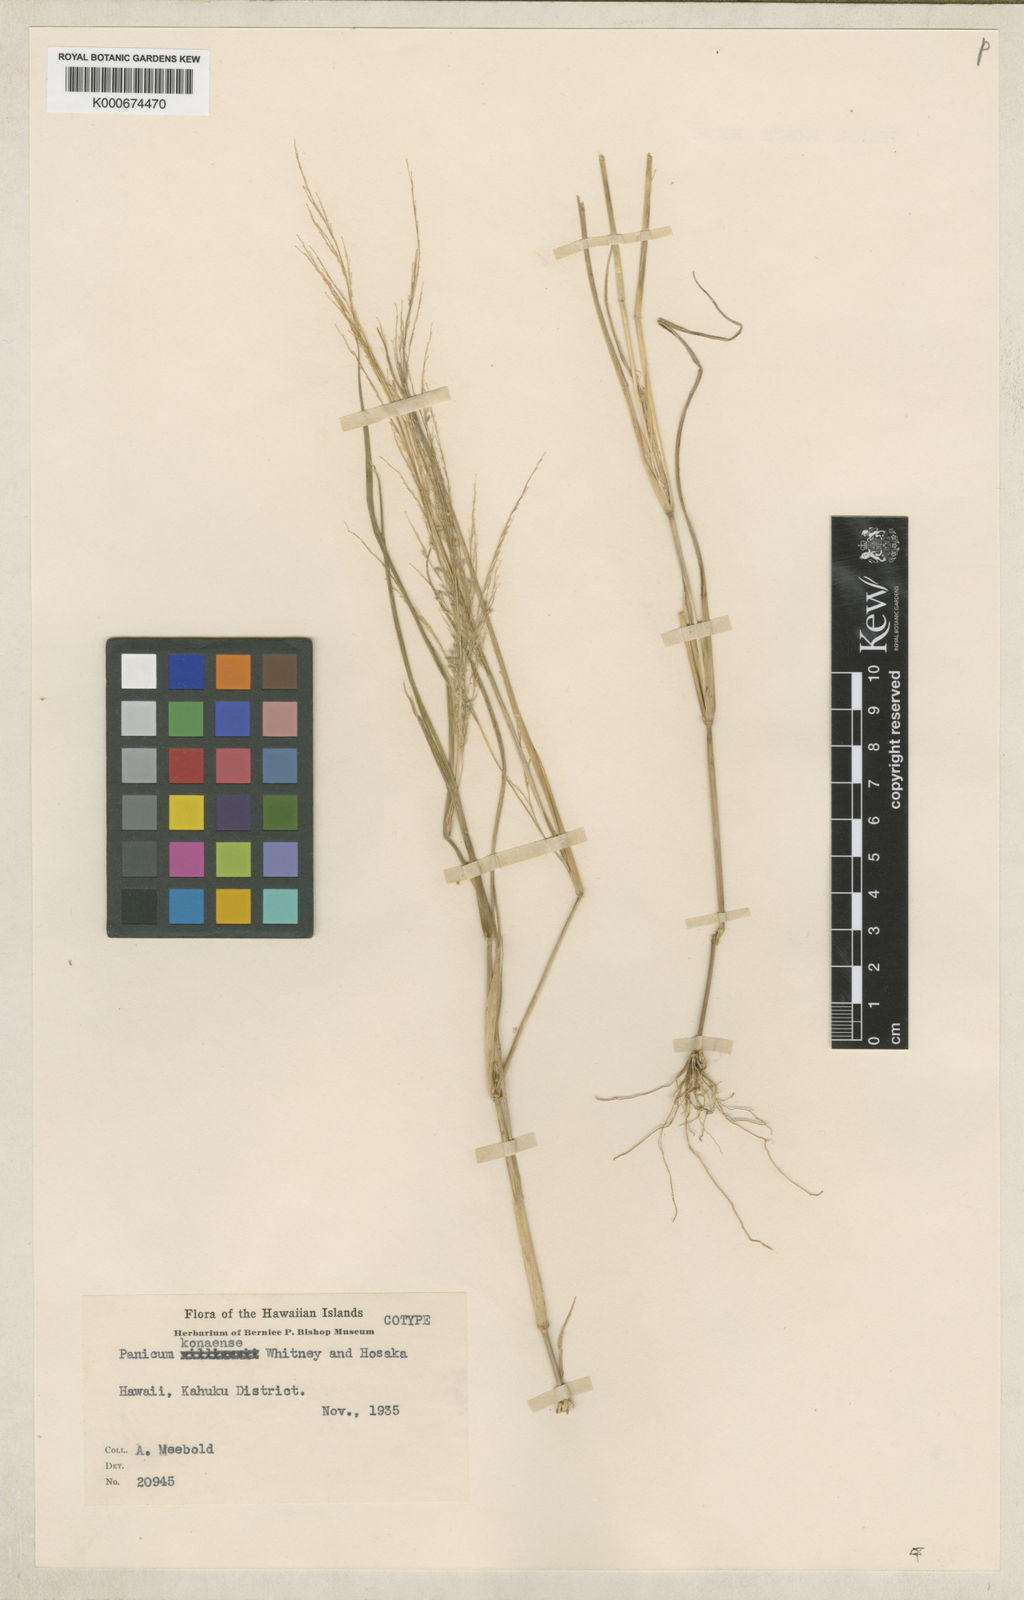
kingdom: Plantae
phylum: Tracheophyta
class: Liliopsida
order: Poales
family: Poaceae
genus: Panicum
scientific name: Panicum konaense
